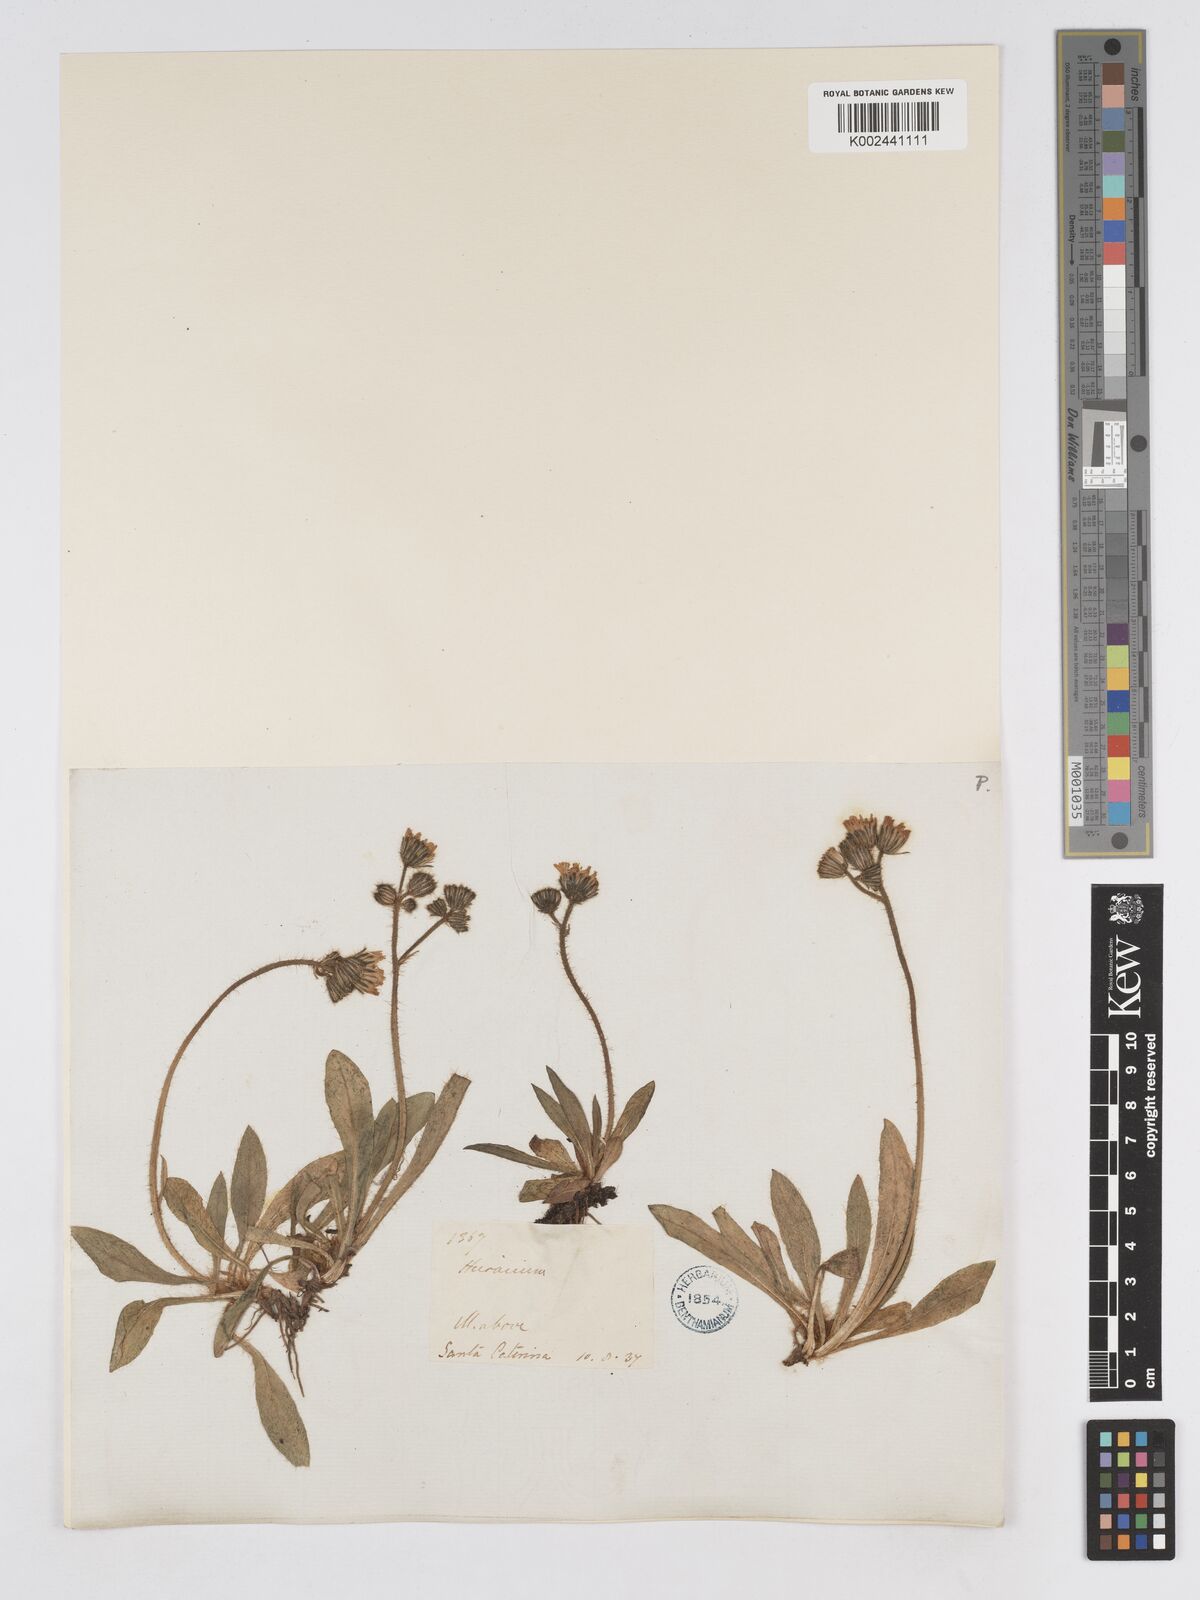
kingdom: Plantae
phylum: Tracheophyta
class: Magnoliopsida
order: Asterales
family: Asteraceae
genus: Pilosella
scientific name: Pilosella lathraea
